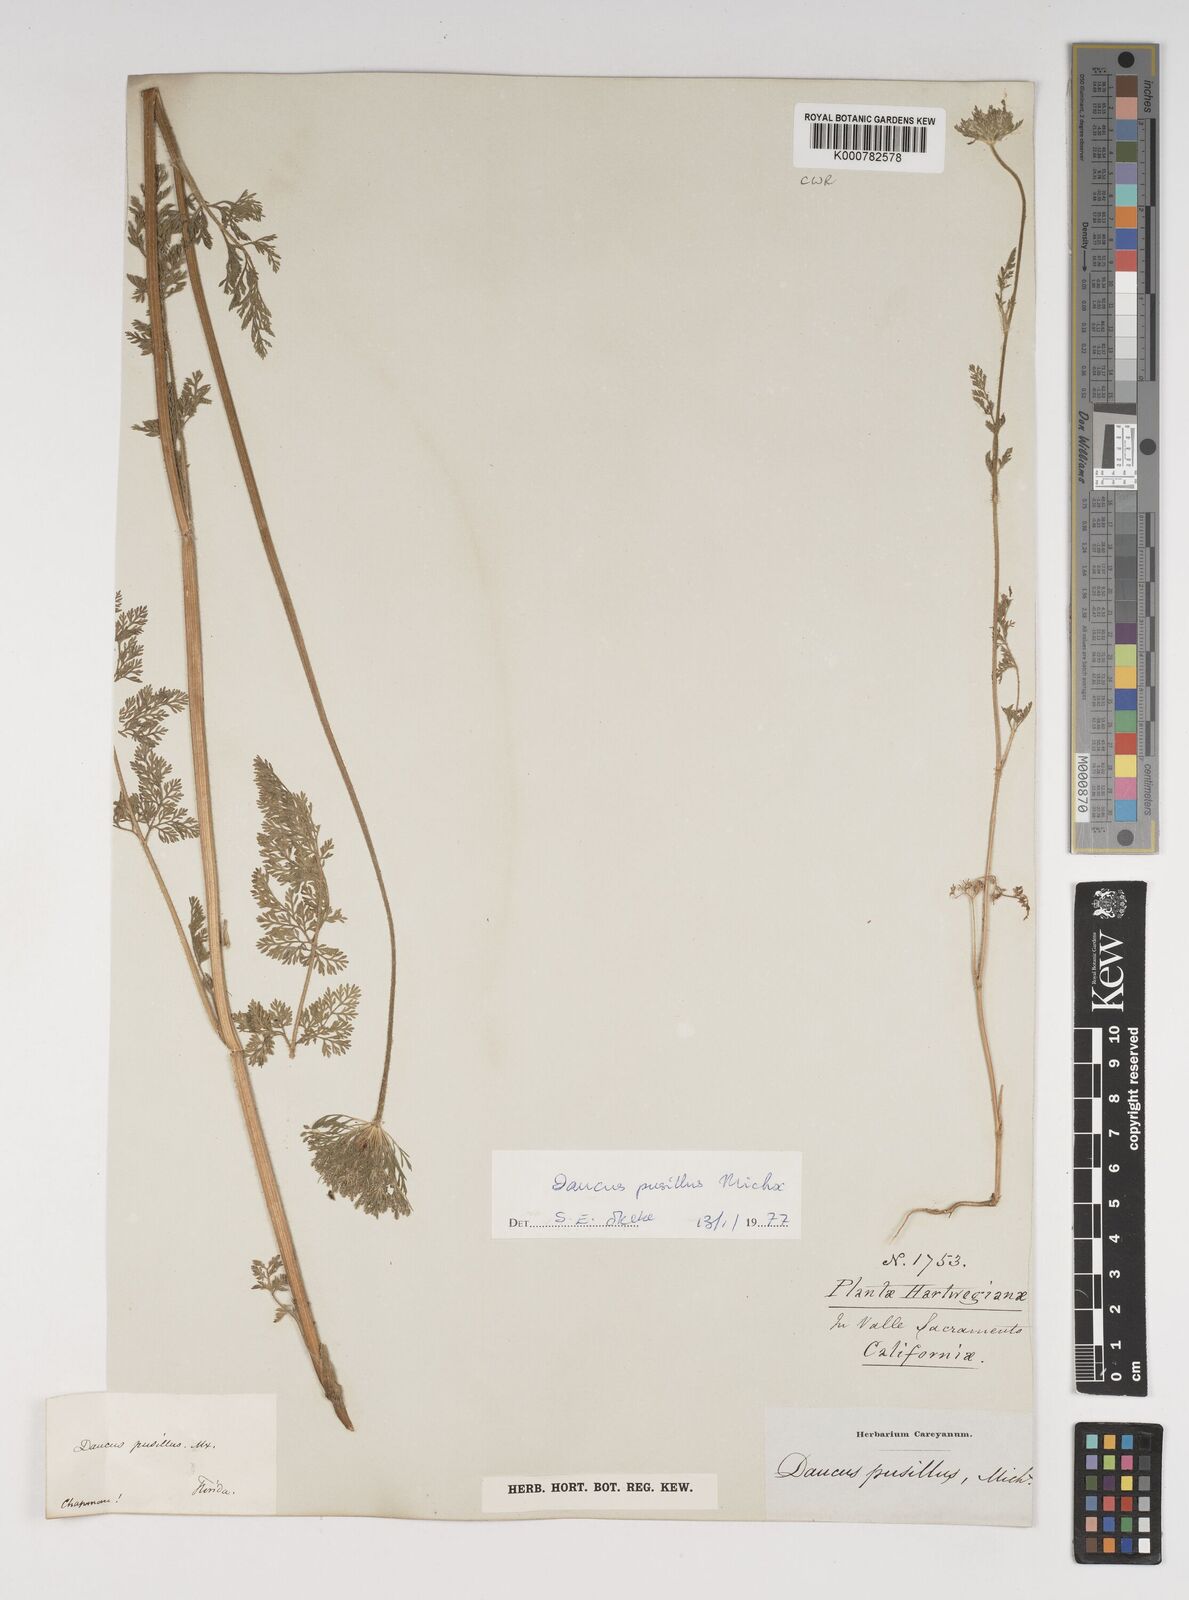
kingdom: Plantae
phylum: Tracheophyta
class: Magnoliopsida
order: Apiales
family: Apiaceae
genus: Daucus
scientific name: Daucus pusillus
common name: Southwest wild carrot
